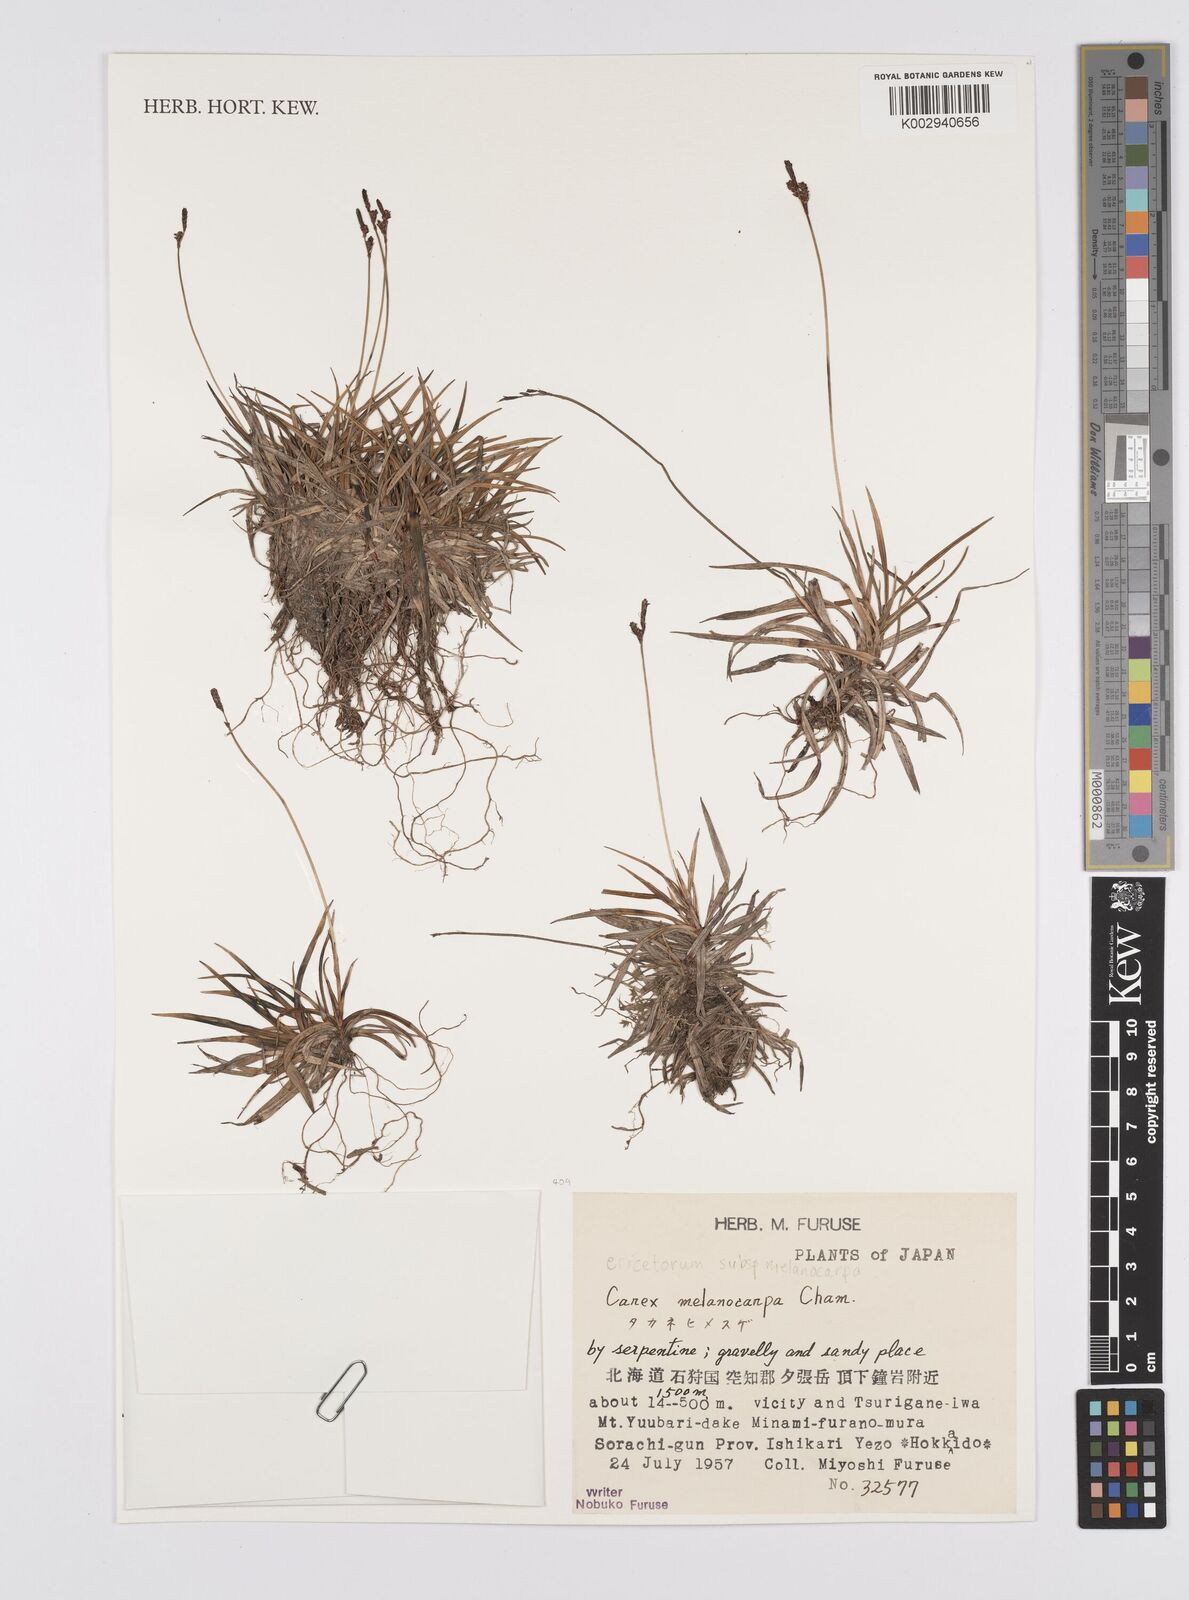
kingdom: Plantae
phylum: Tracheophyta
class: Liliopsida
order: Poales
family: Cyperaceae
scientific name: Cyperaceae
